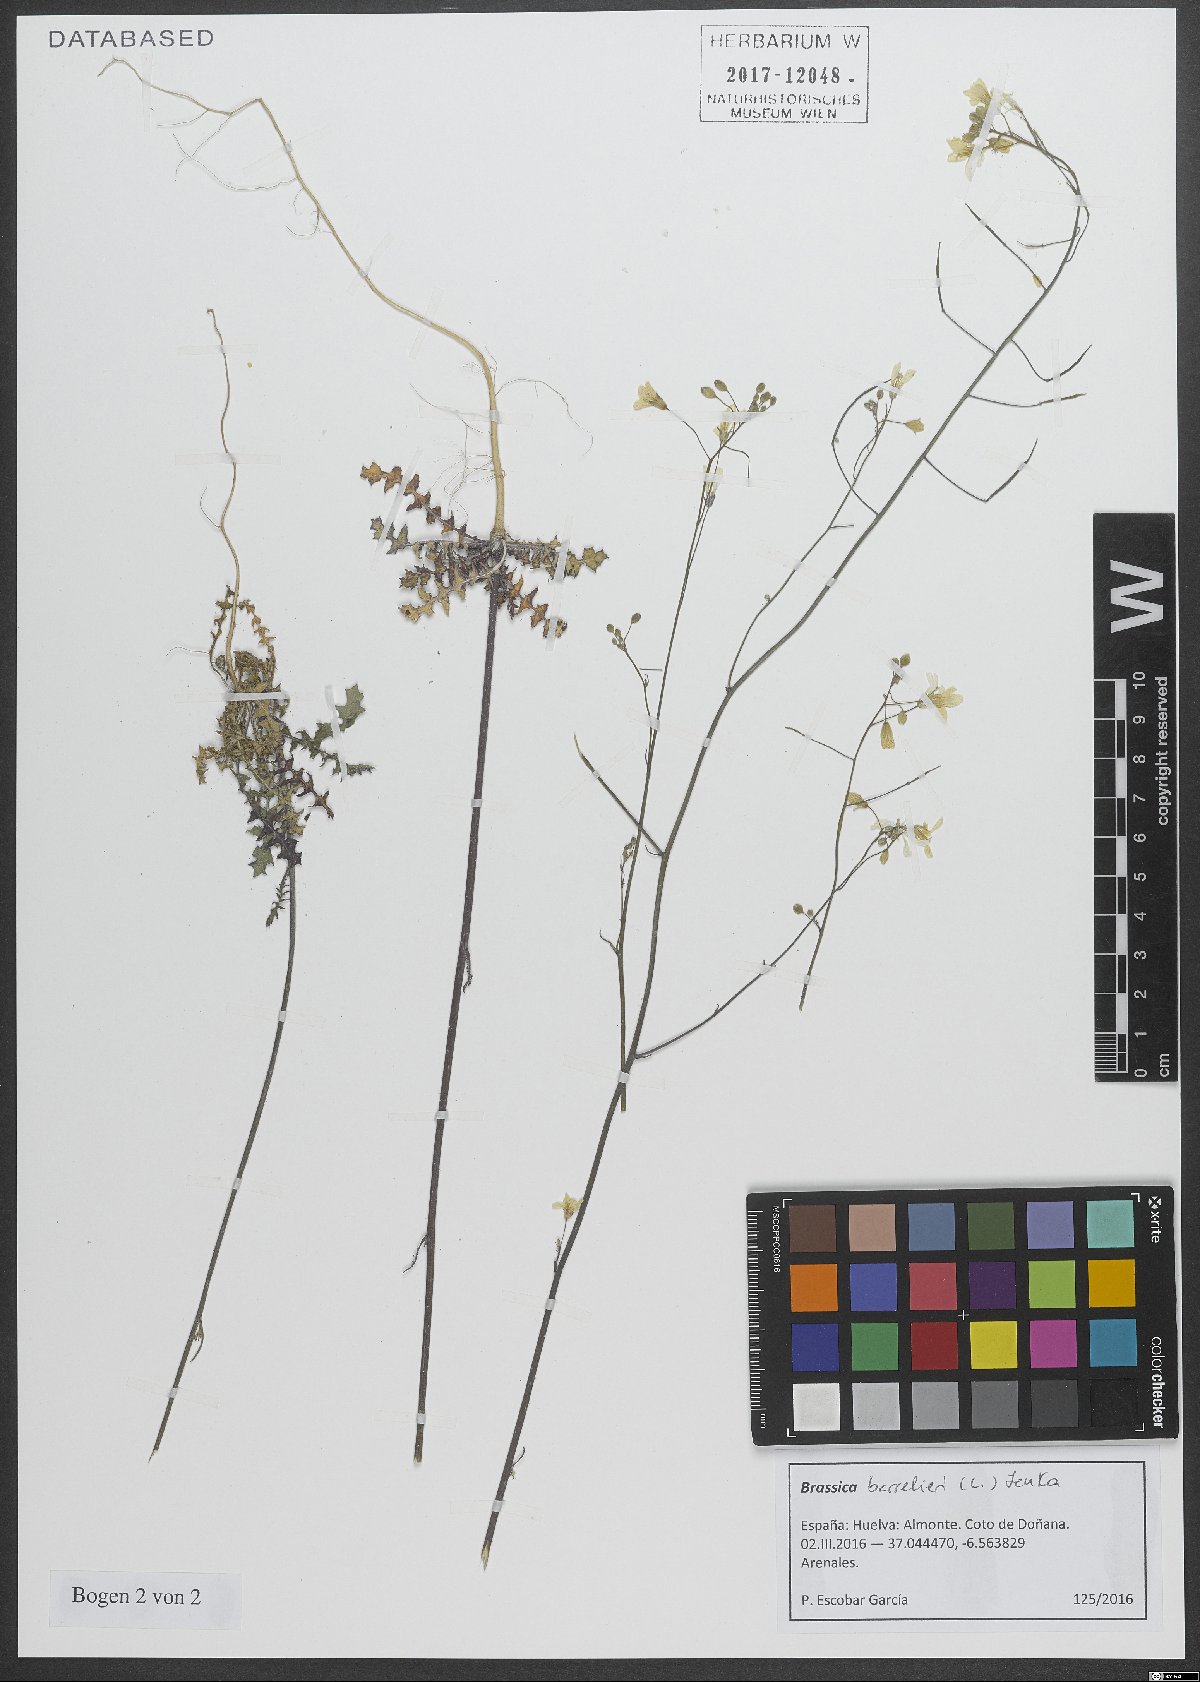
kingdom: Plantae
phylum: Tracheophyta
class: Magnoliopsida
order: Brassicales
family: Brassicaceae
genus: Brassica
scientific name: Brassica barrelieri
